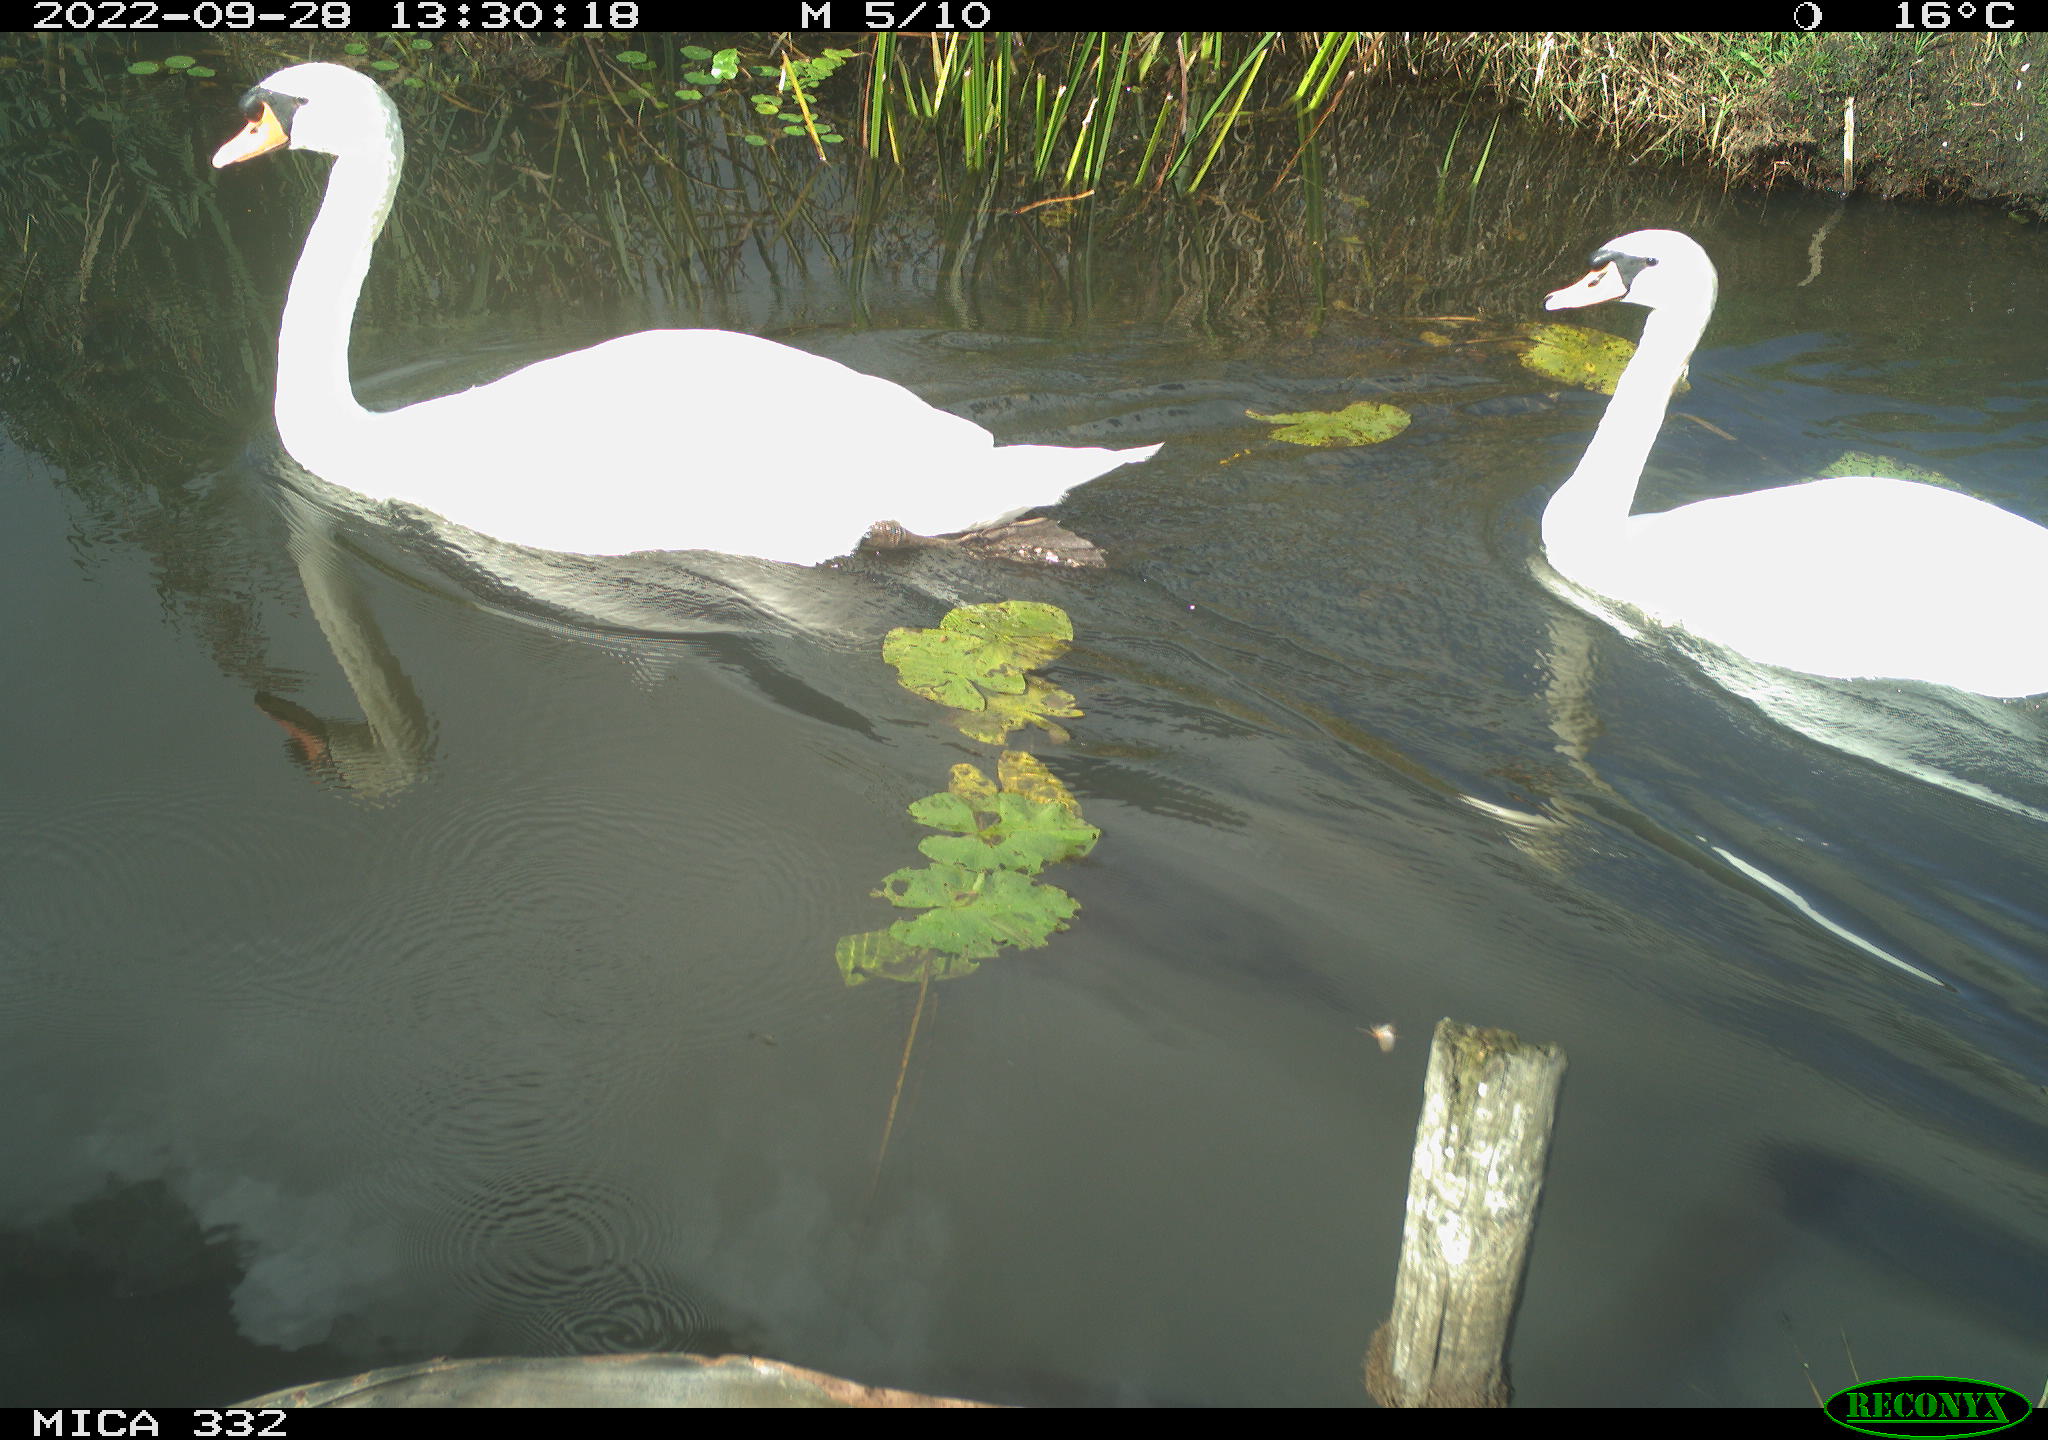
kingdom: Animalia
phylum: Chordata
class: Aves
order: Anseriformes
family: Anatidae
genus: Cygnus
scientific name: Cygnus olor
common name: Mute swan
